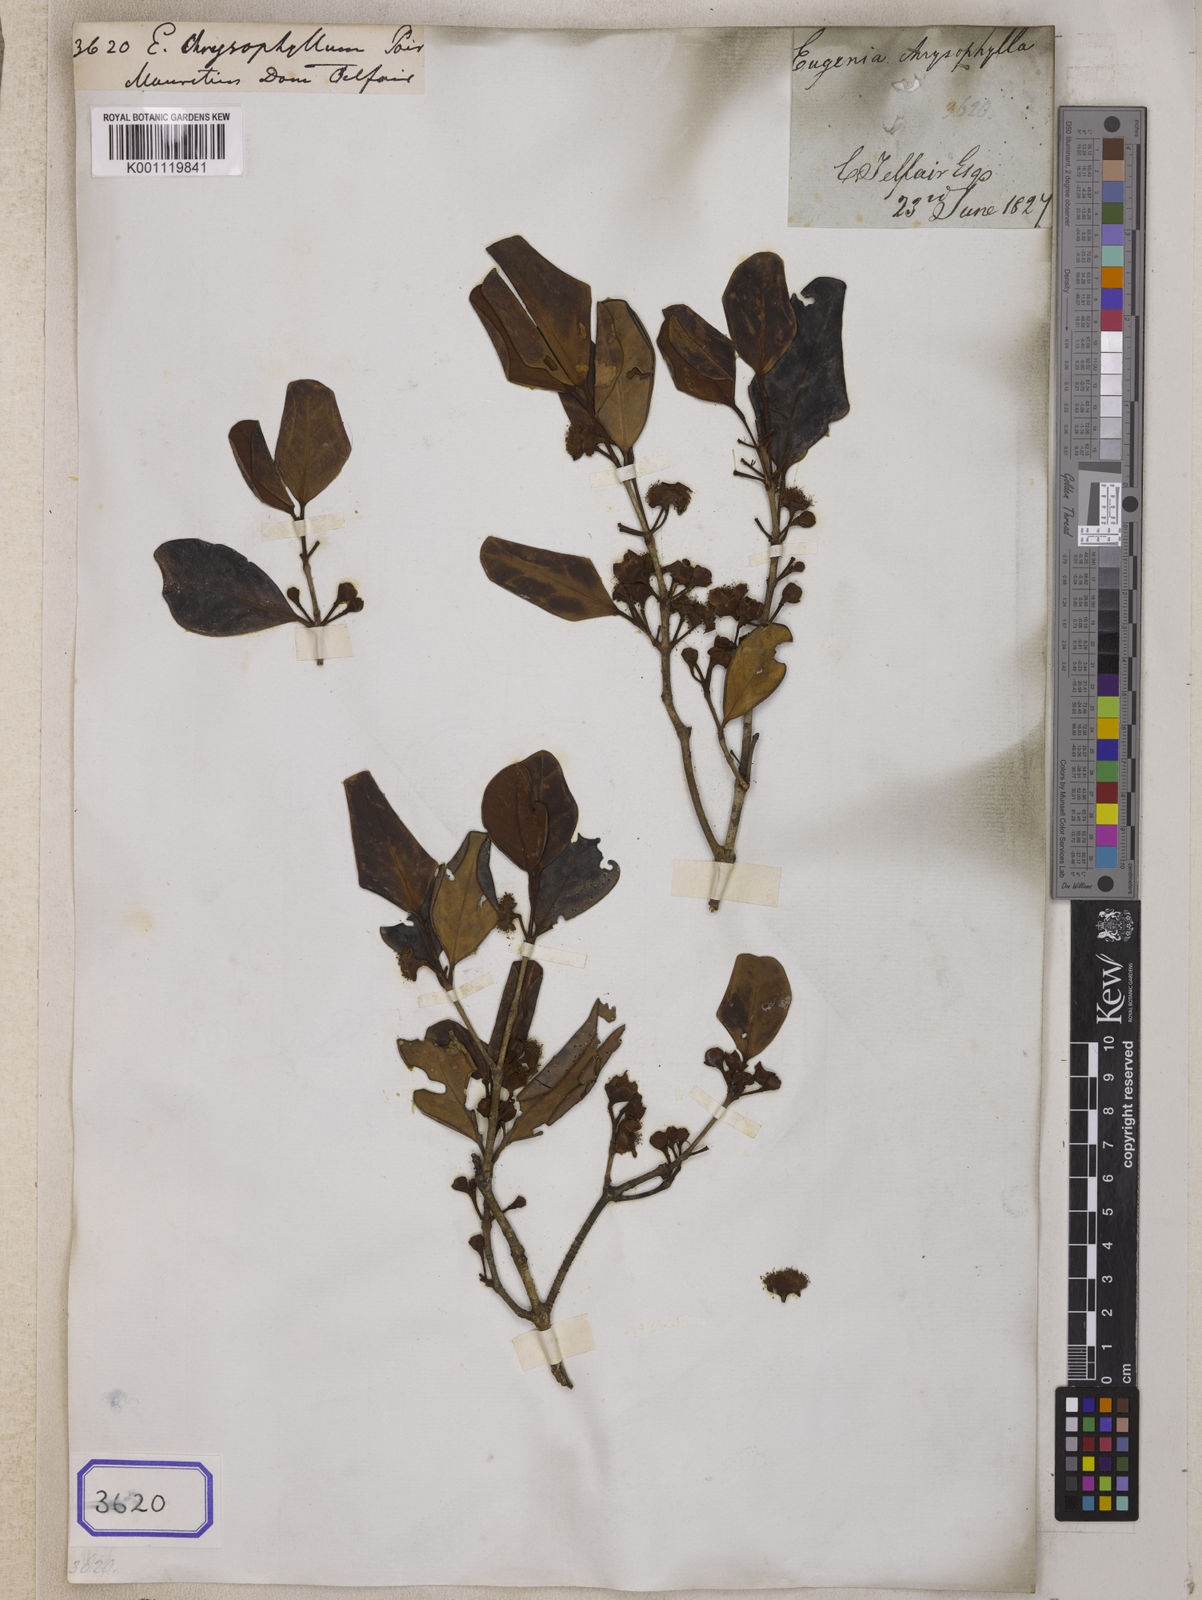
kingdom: Plantae
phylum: Tracheophyta
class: Magnoliopsida
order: Myrtales
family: Myrtaceae
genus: Eugenia
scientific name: Eugenia chrysophyllum
